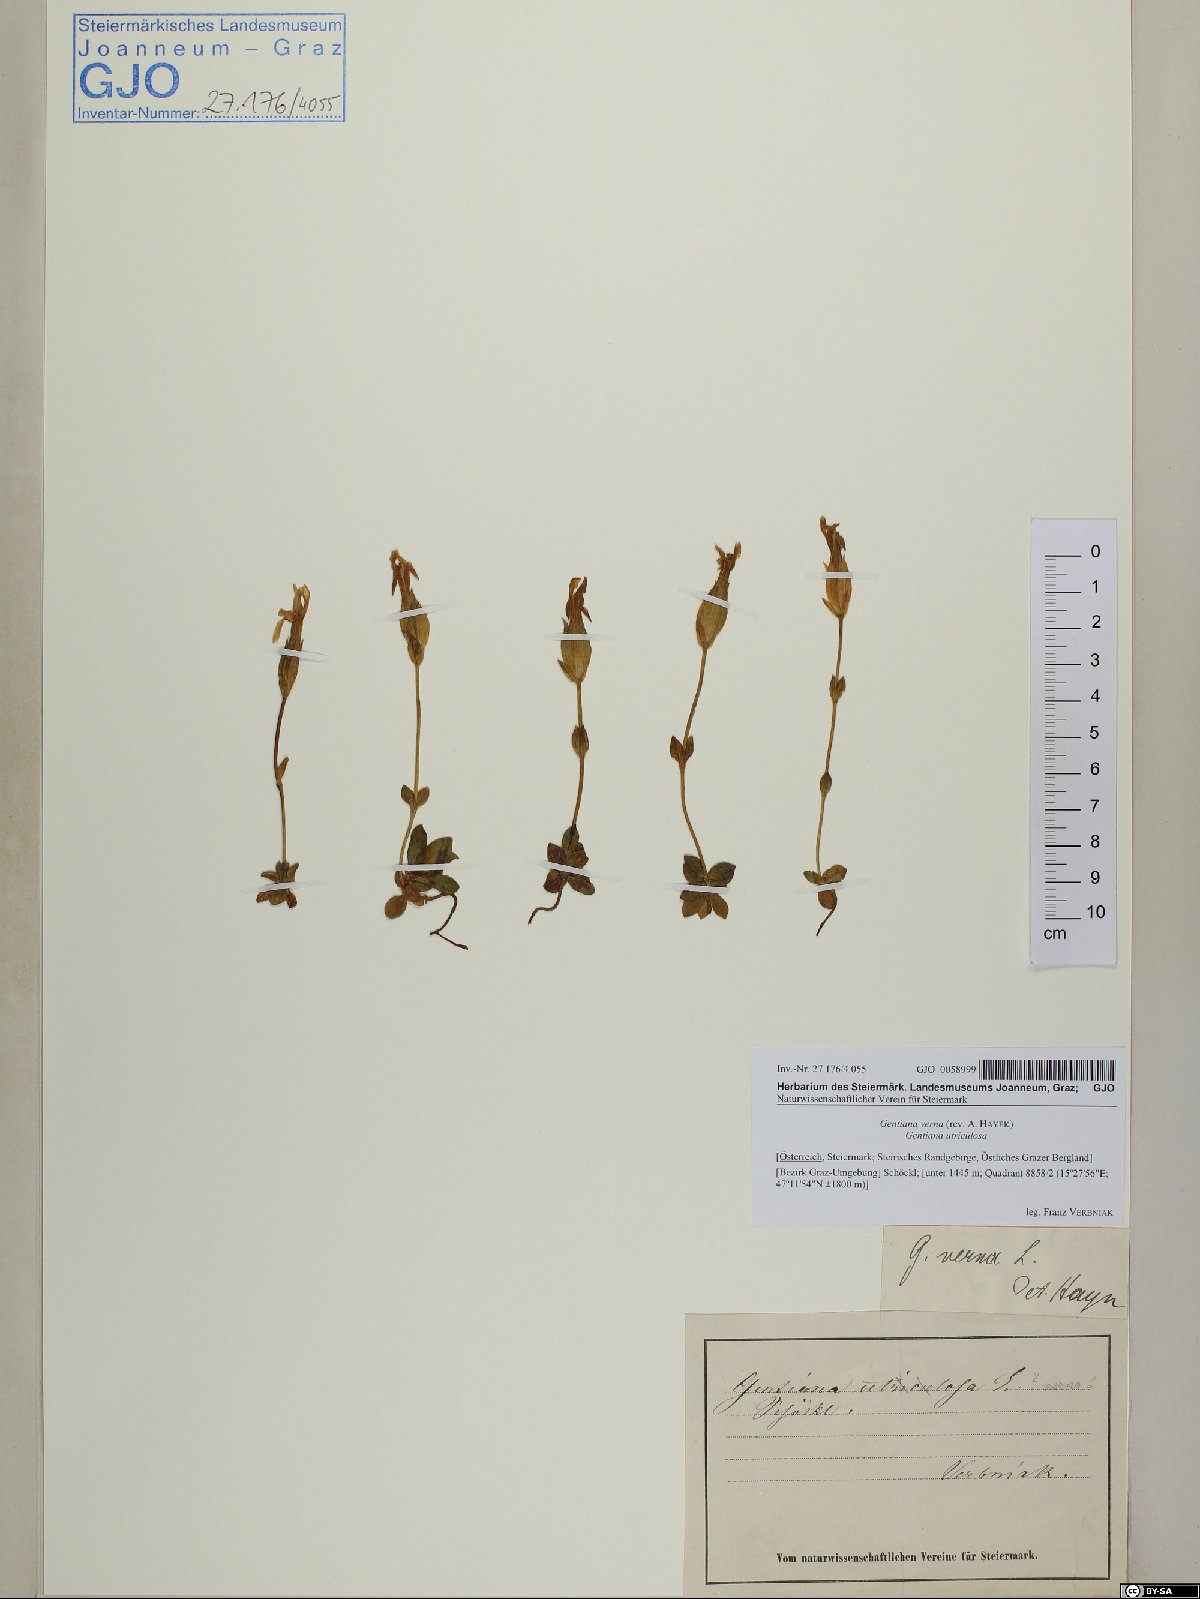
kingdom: Plantae
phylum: Tracheophyta
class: Magnoliopsida
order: Gentianales
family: Gentianaceae
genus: Gentiana
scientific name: Gentiana verna
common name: Spring gentian
